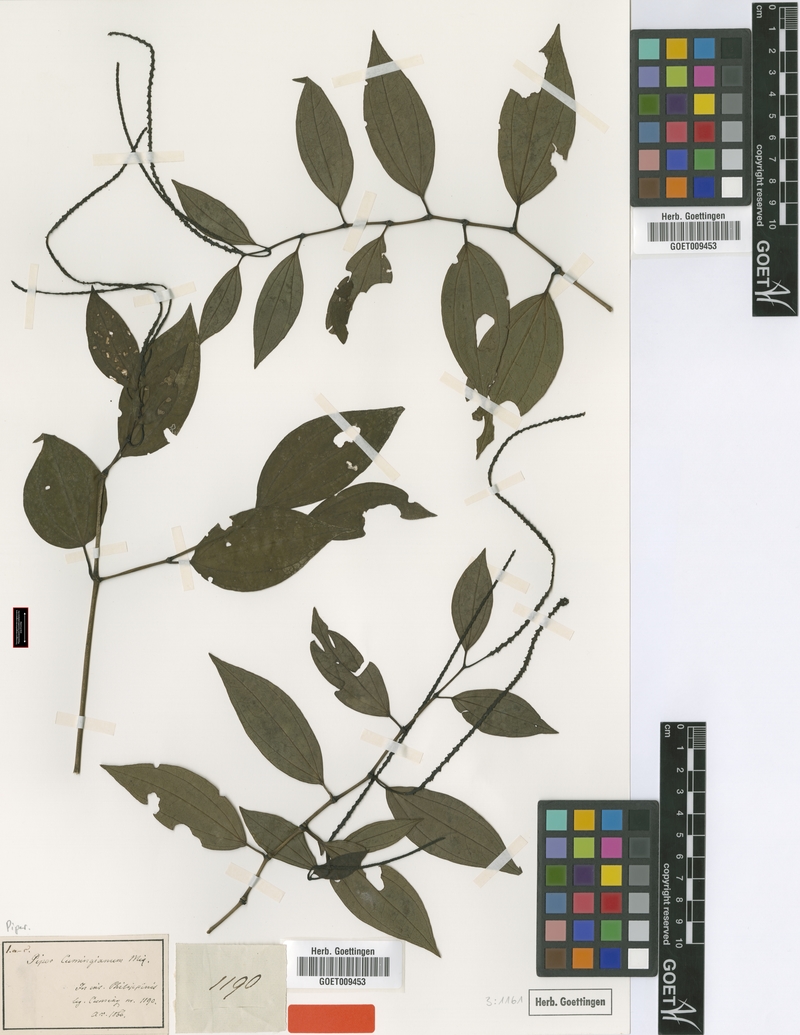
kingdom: Plantae
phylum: Tracheophyta
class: Magnoliopsida
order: Piperales
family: Piperaceae
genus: Piper
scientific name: Piper interruptum
